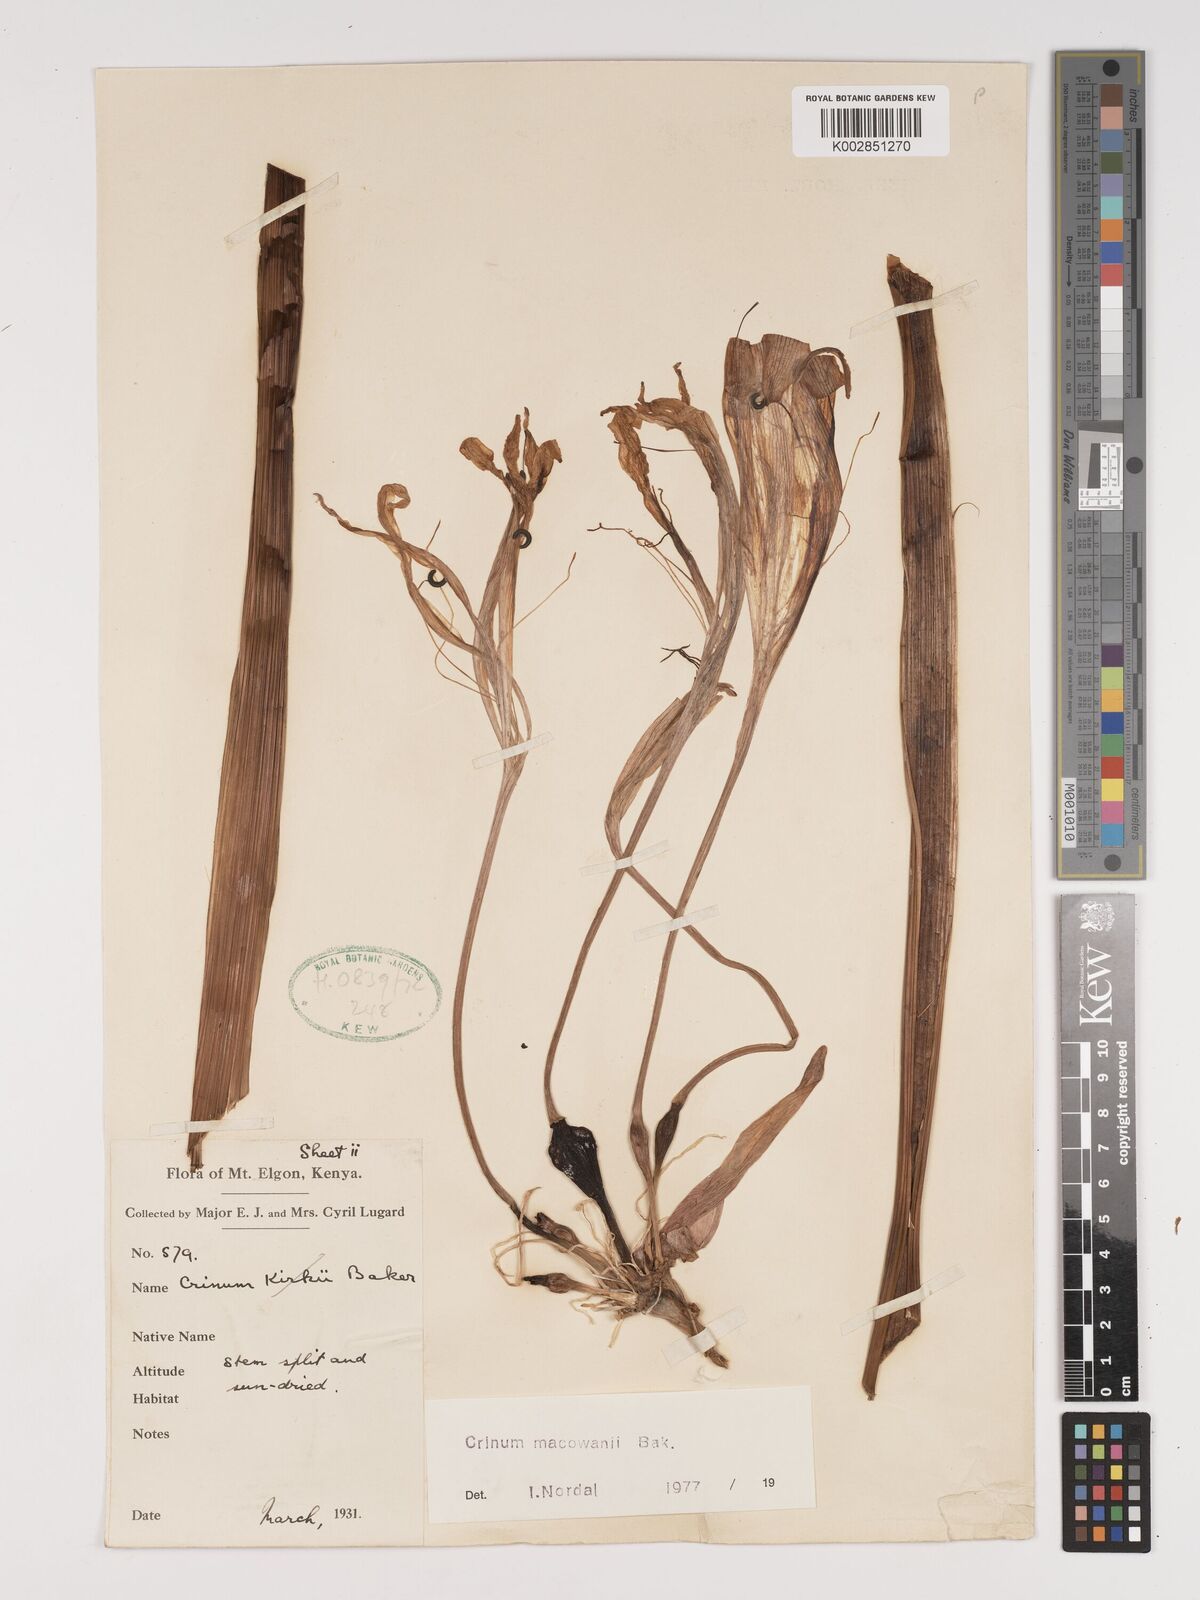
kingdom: Plantae
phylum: Tracheophyta
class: Liliopsida
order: Asparagales
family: Amaryllidaceae
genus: Crinum
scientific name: Crinum macowanii
